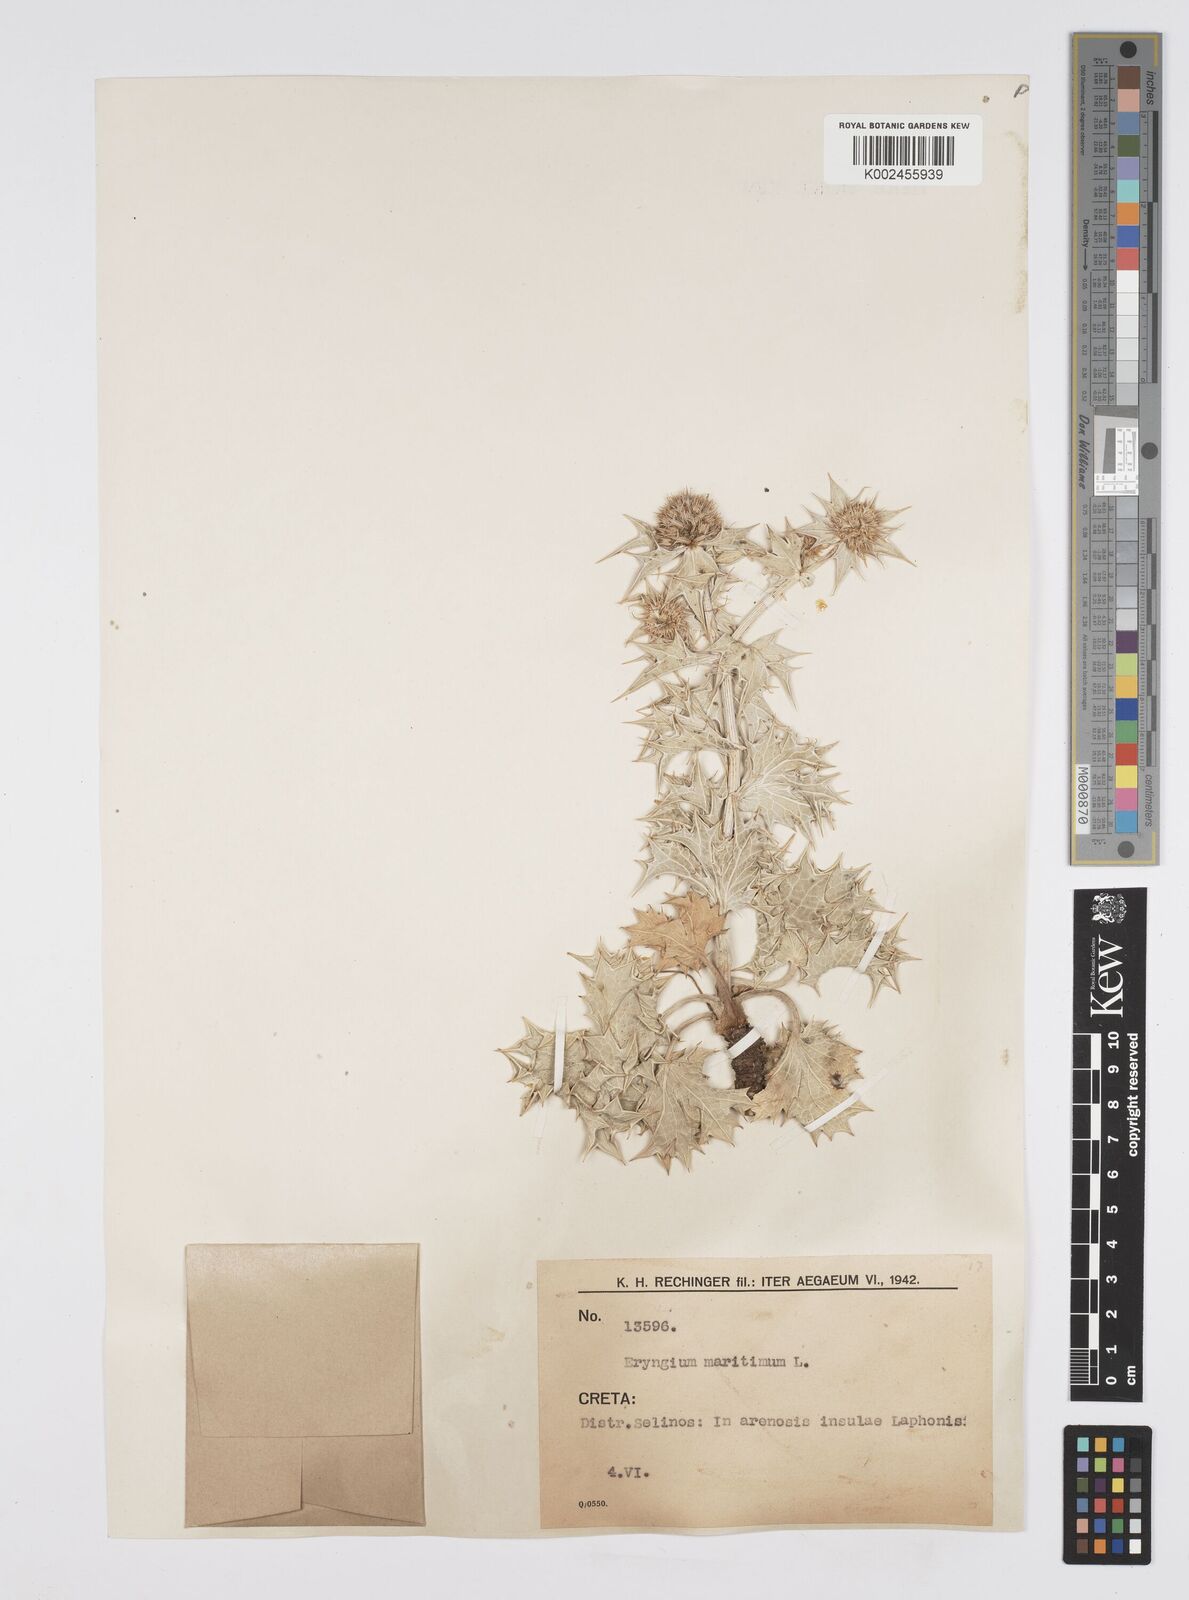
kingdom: Plantae
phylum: Tracheophyta
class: Magnoliopsida
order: Apiales
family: Apiaceae
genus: Eryngium
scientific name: Eryngium maritimum
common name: Sea-holly
